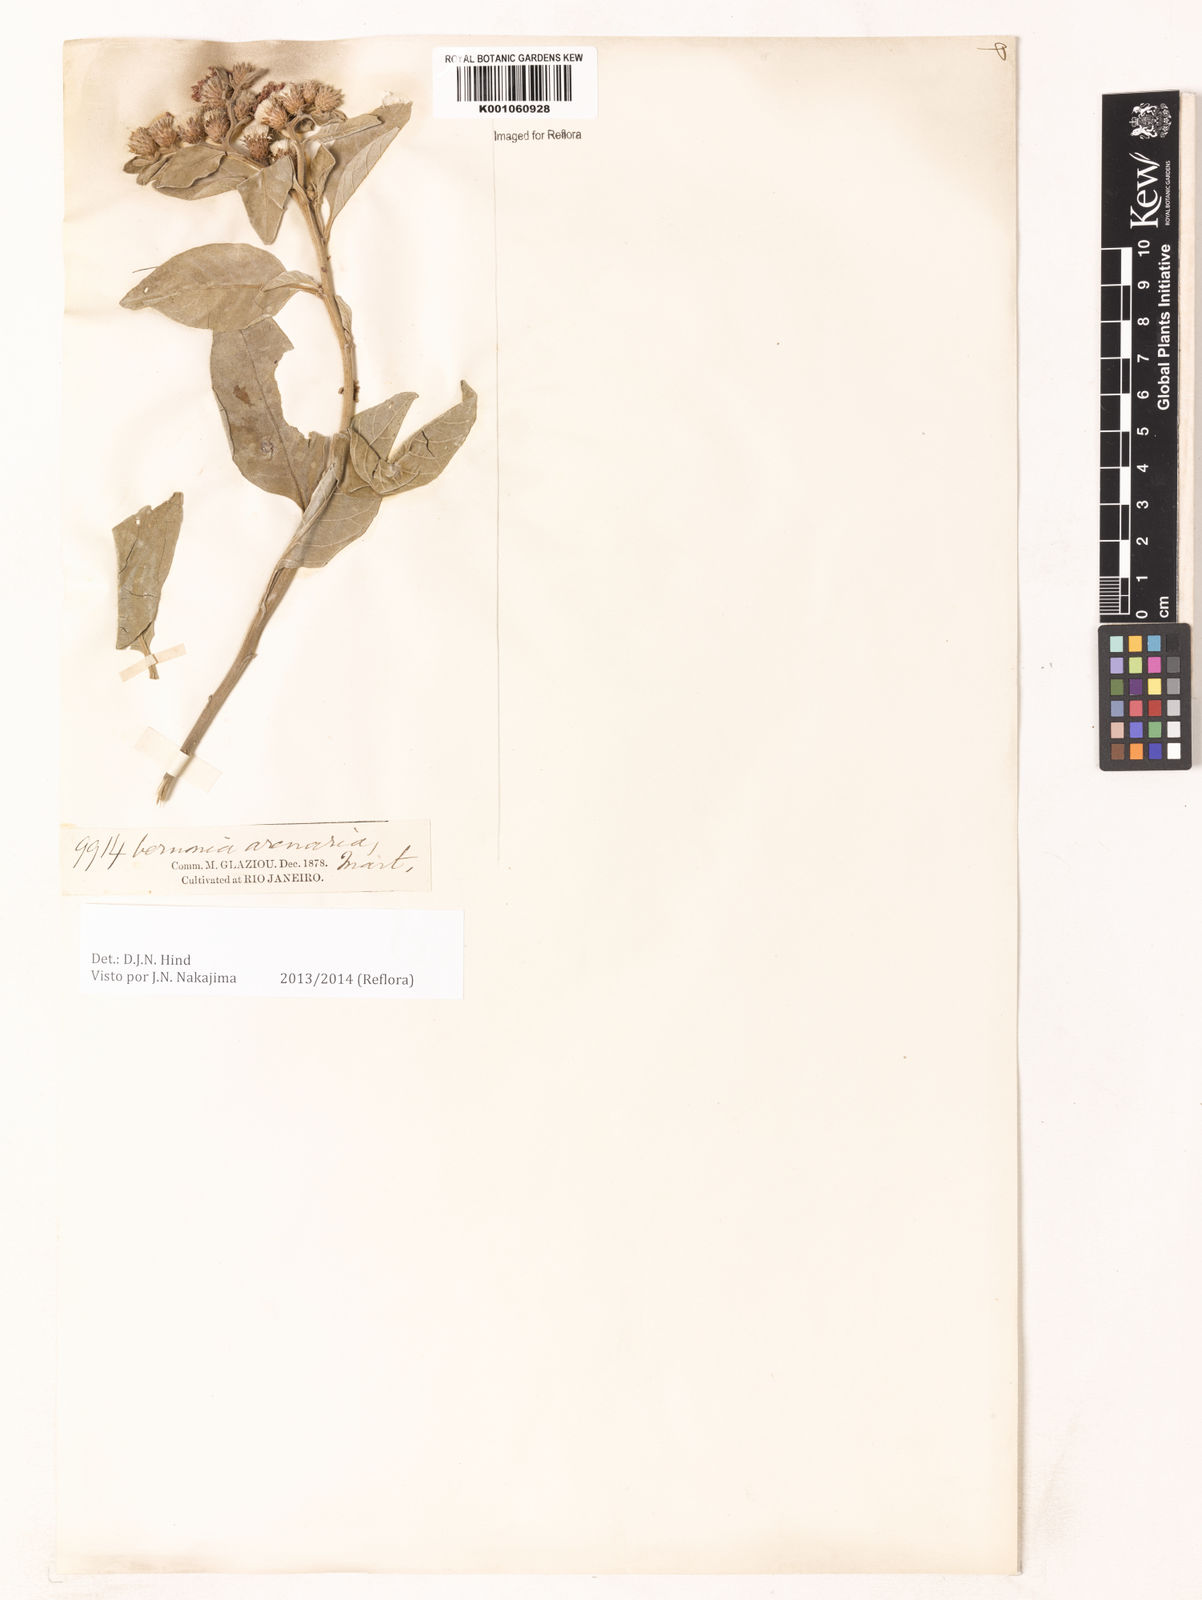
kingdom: Plantae
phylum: Tracheophyta
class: Magnoliopsida
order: Asterales
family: Asteraceae
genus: Lepidaploa
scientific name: Lepidaploa arenaria
